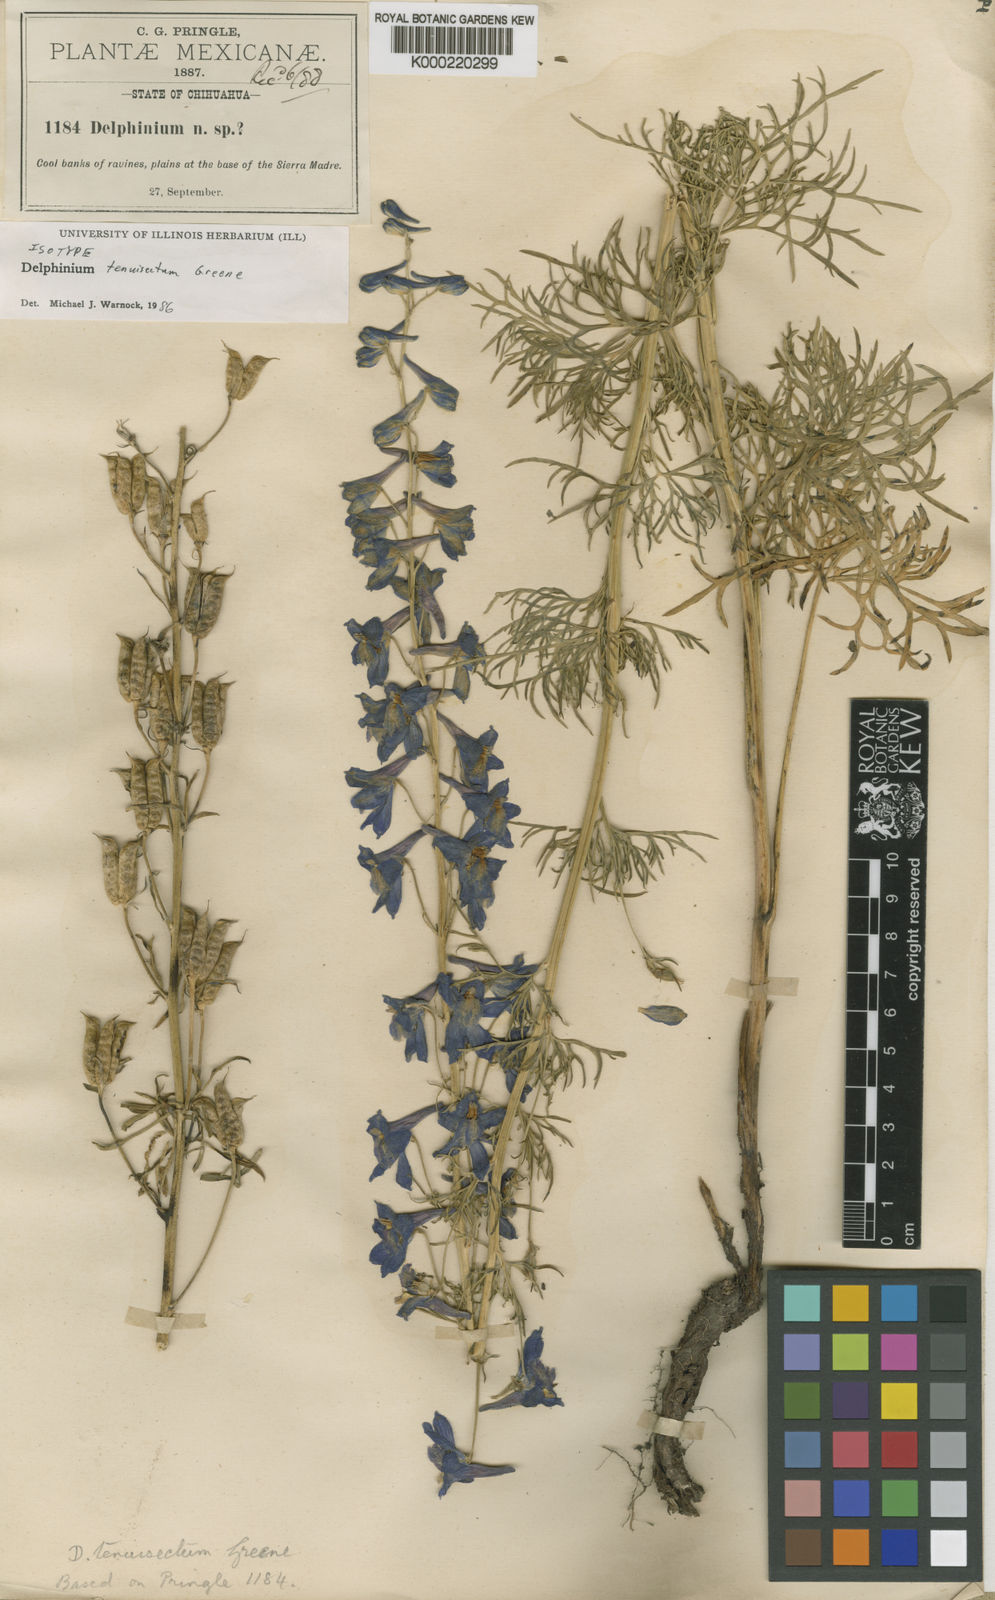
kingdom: Plantae
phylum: Tracheophyta
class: Magnoliopsida
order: Ranunculales
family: Ranunculaceae
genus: Delphinium
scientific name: Delphinium tenuisectum
